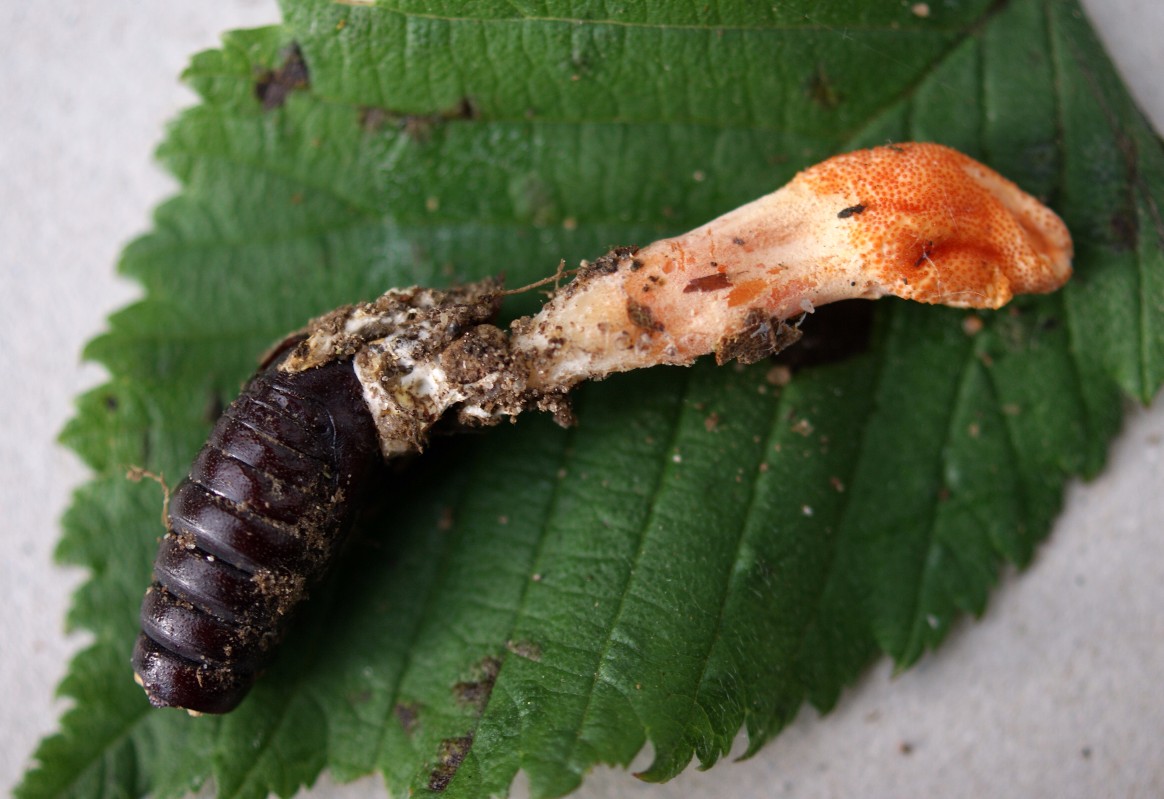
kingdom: Fungi
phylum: Ascomycota
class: Sordariomycetes
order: Hypocreales
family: Cordycipitaceae
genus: Cordyceps
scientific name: Cordyceps militaris
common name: puppe-snyltekølle
